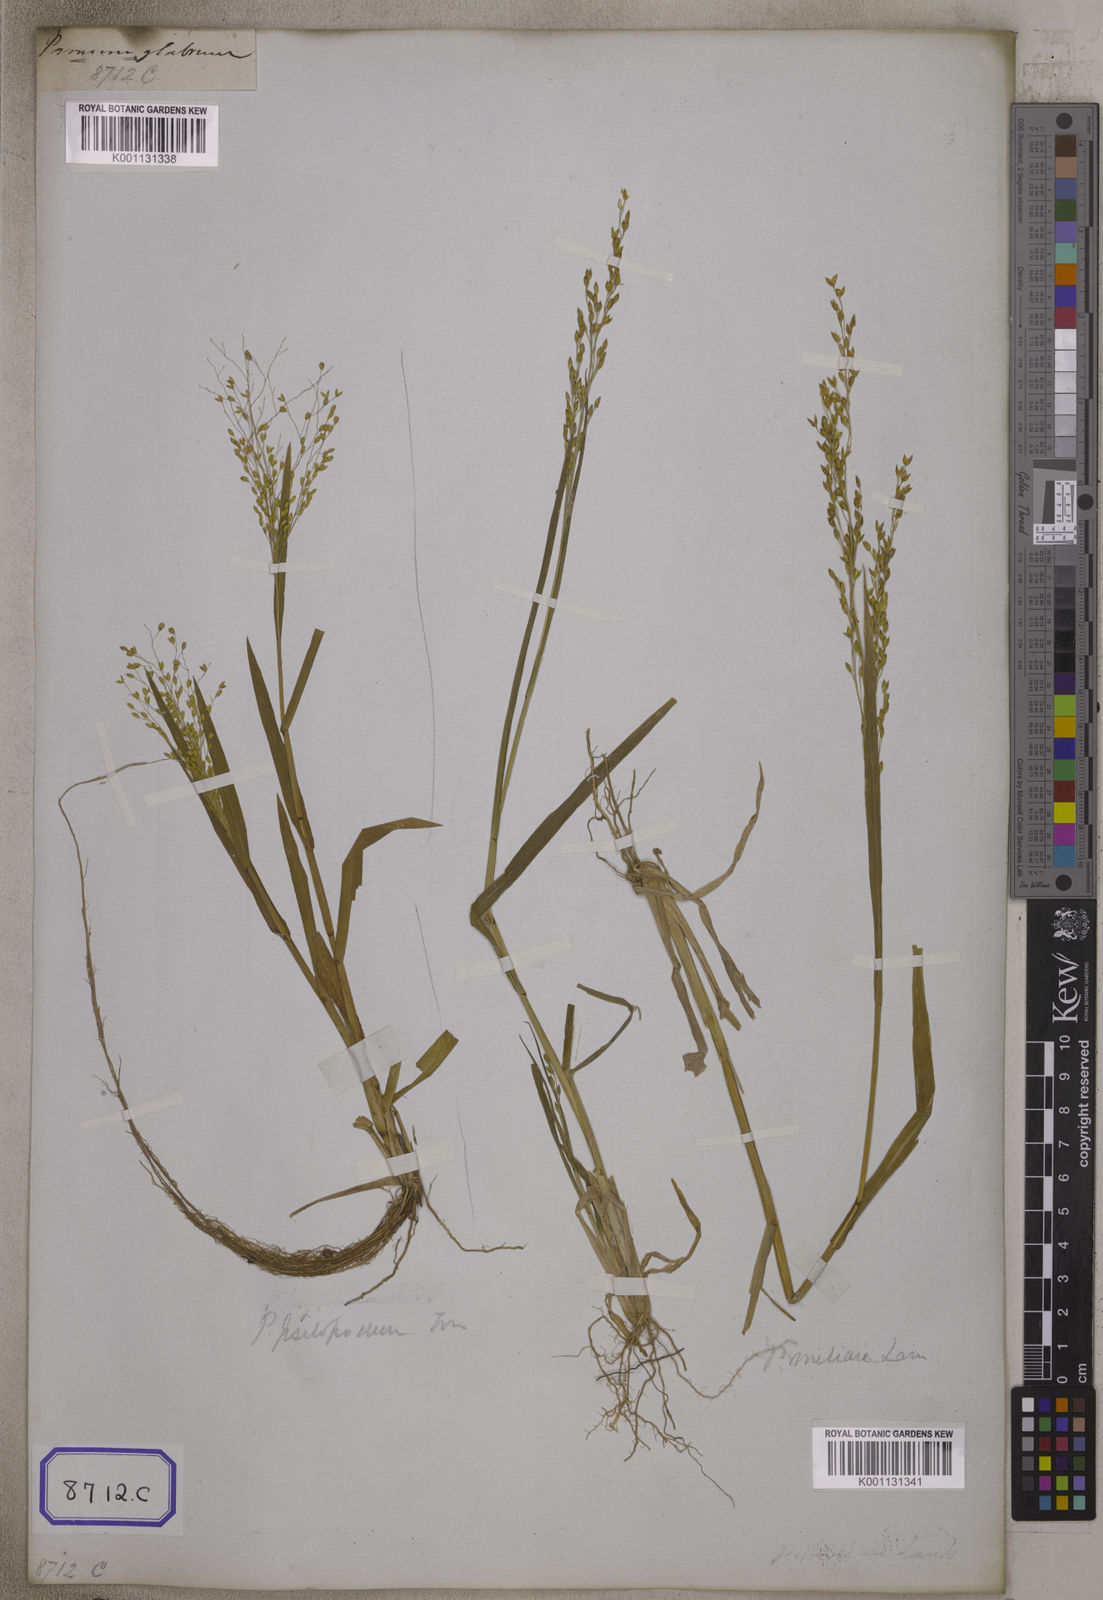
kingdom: Plantae
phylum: Tracheophyta
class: Liliopsida
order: Poales
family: Poaceae
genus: Panicum
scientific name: Panicum antidotale
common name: Blue panicum
